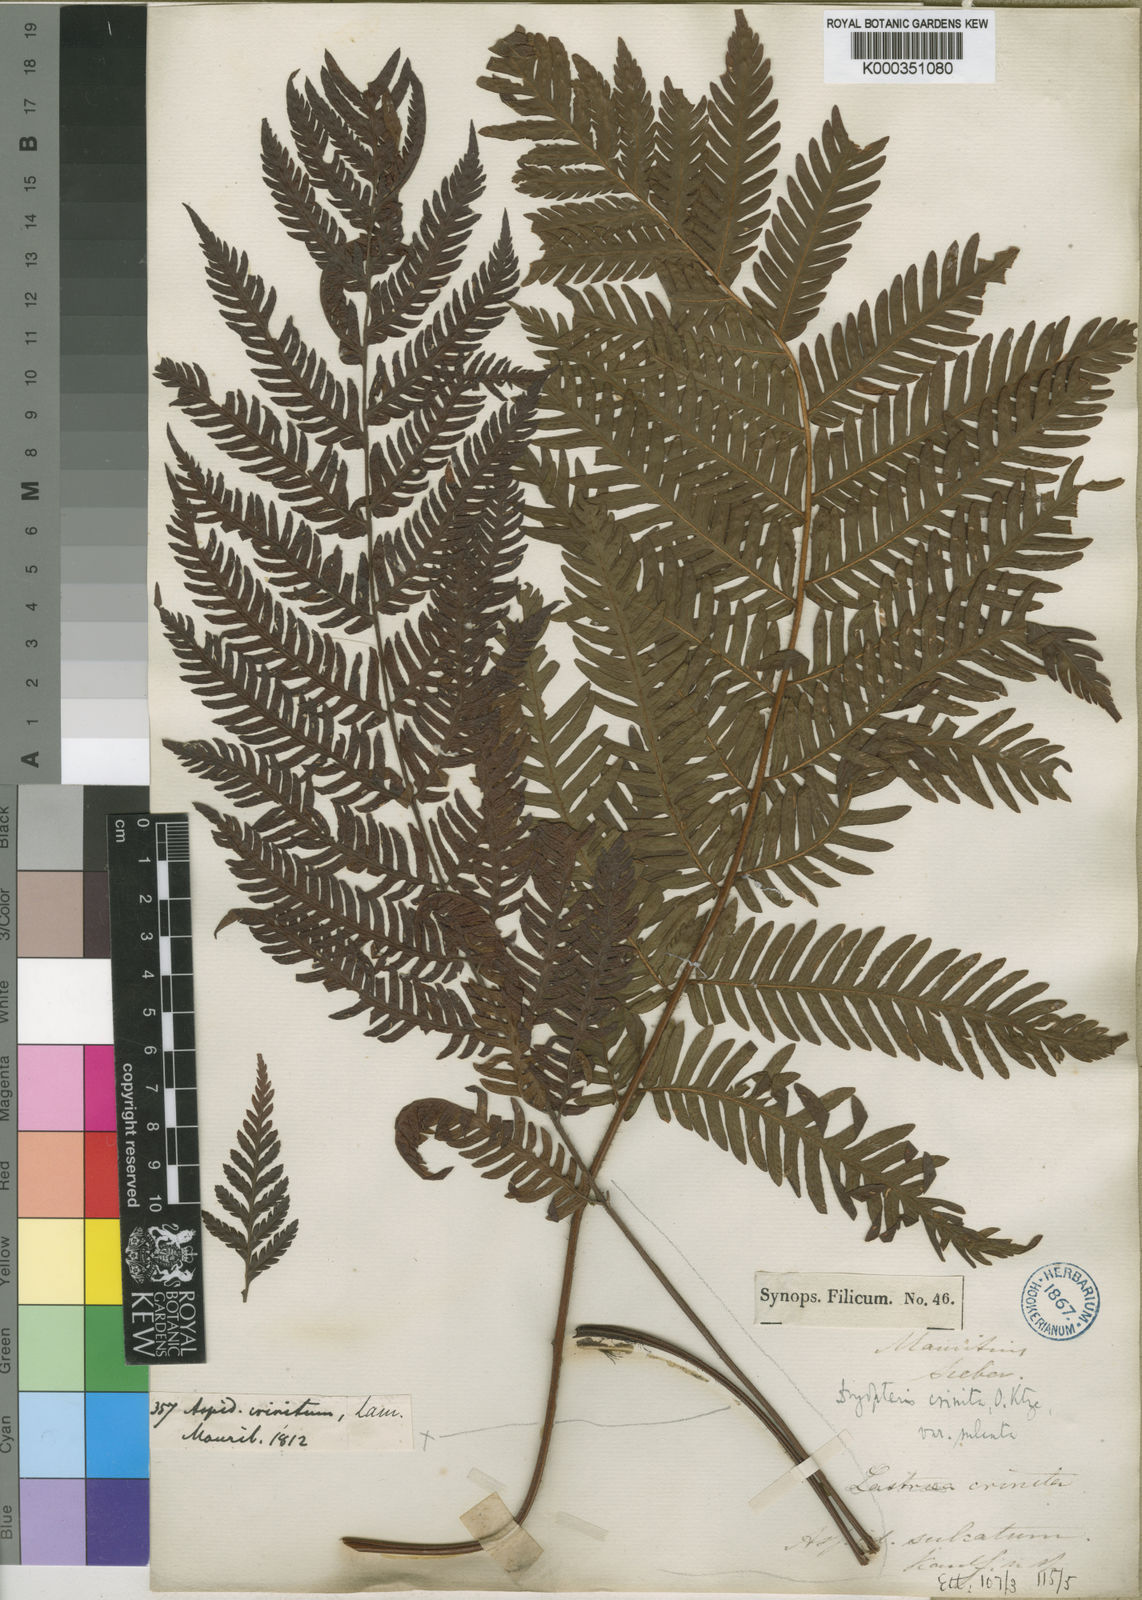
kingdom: Plantae
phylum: Tracheophyta
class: Polypodiopsida
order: Polypodiales
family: Dryopteridaceae
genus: Ctenitis
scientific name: Ctenitis crinita
